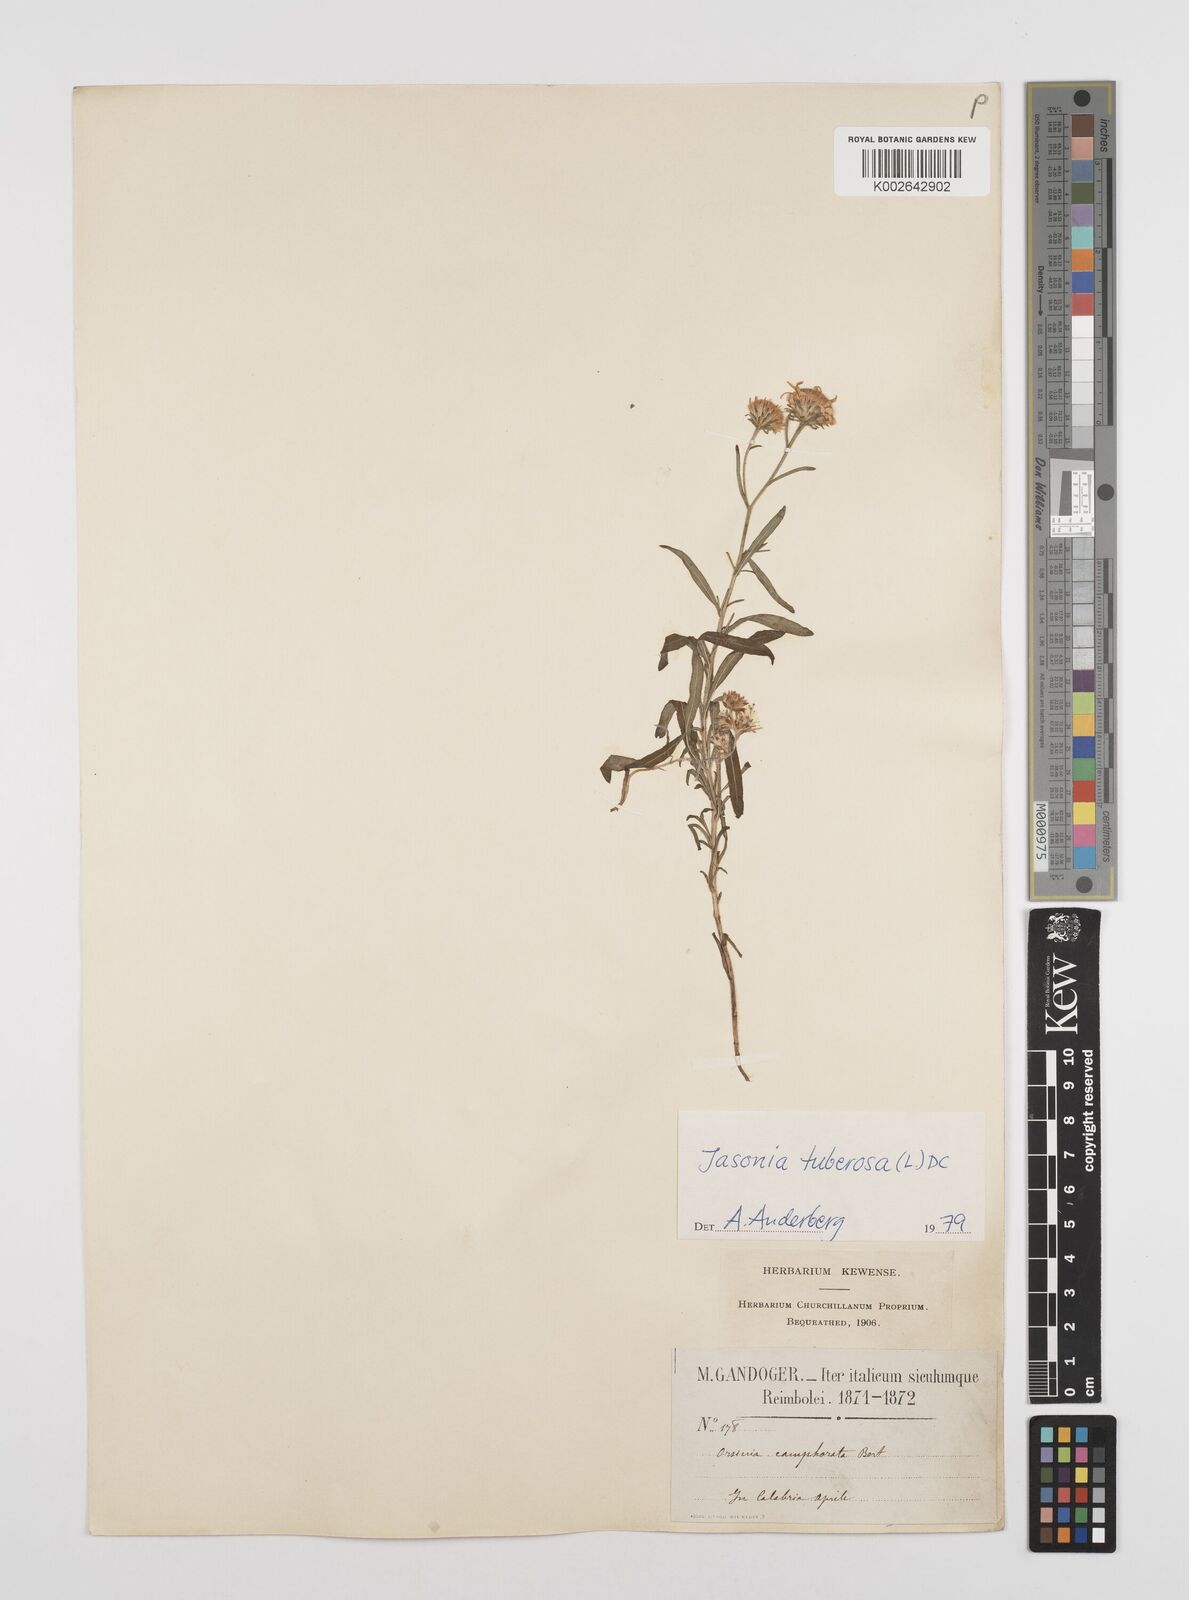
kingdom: Plantae
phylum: Tracheophyta
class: Magnoliopsida
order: Asterales
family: Asteraceae
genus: Jasonia
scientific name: Jasonia tuberosa
